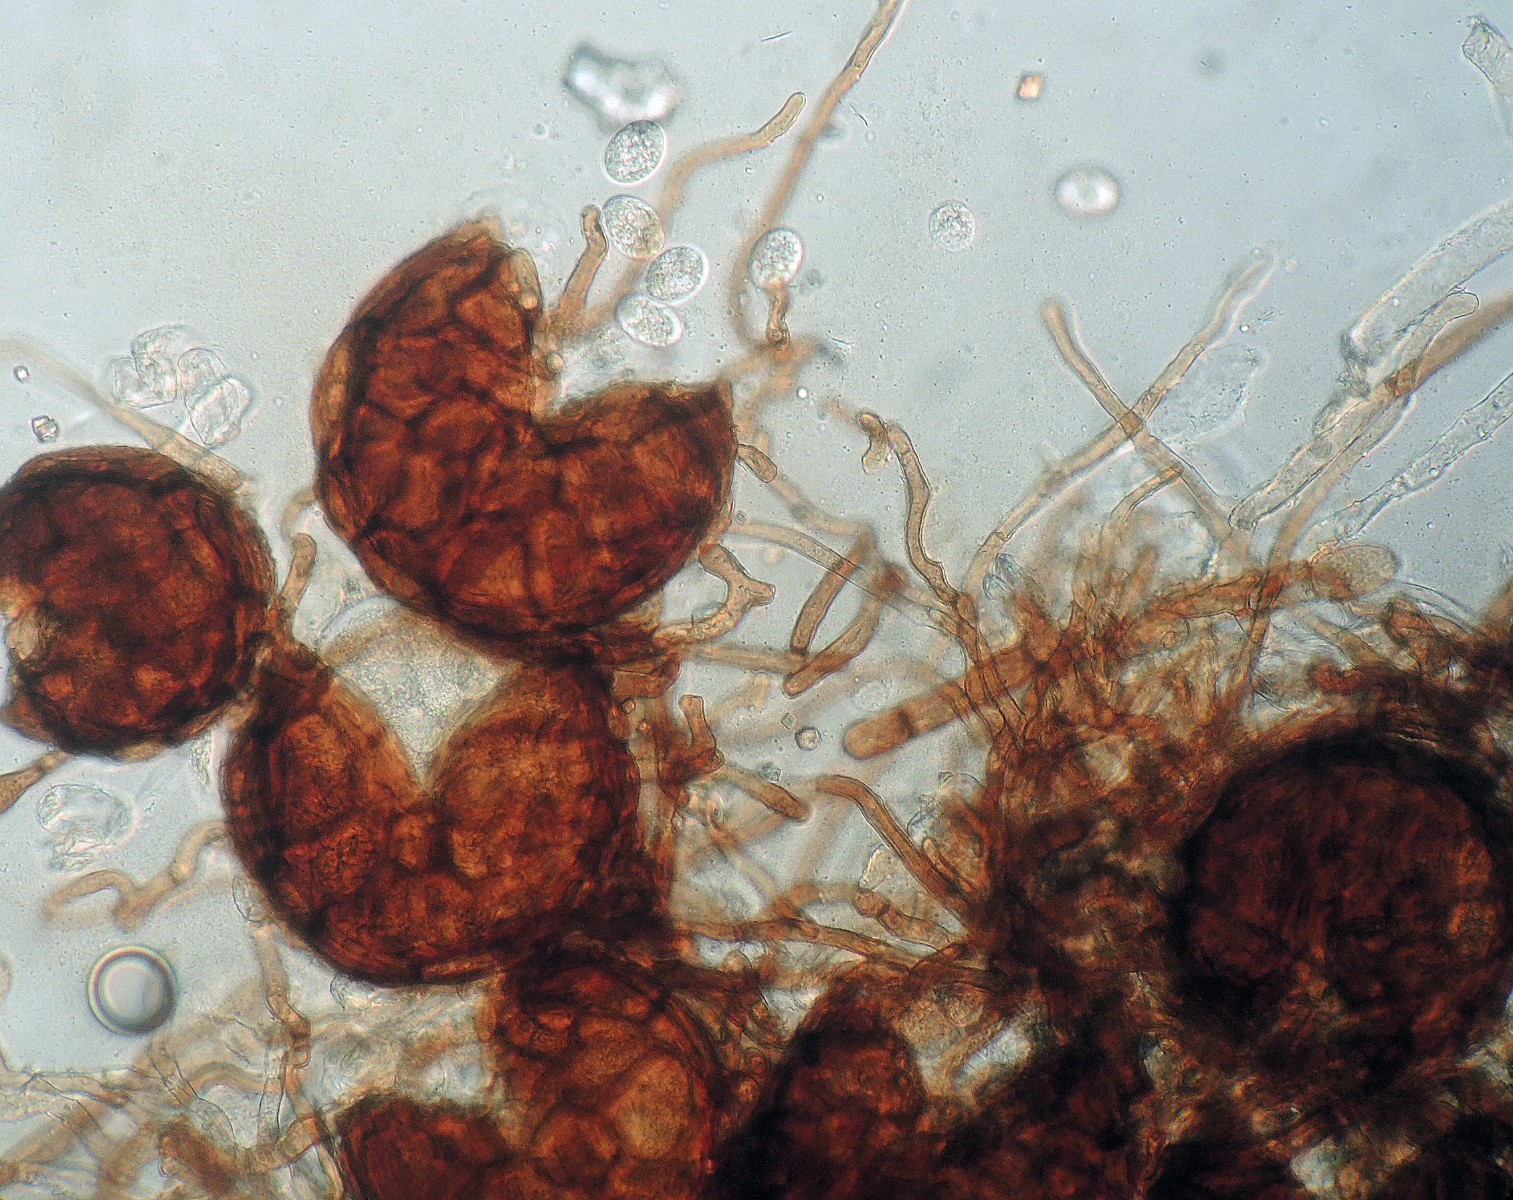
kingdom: Fungi
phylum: Ascomycota
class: Leotiomycetes
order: Helotiales
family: Erysiphaceae
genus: Podosphaera
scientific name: Podosphaera erigerontis-canadensis
